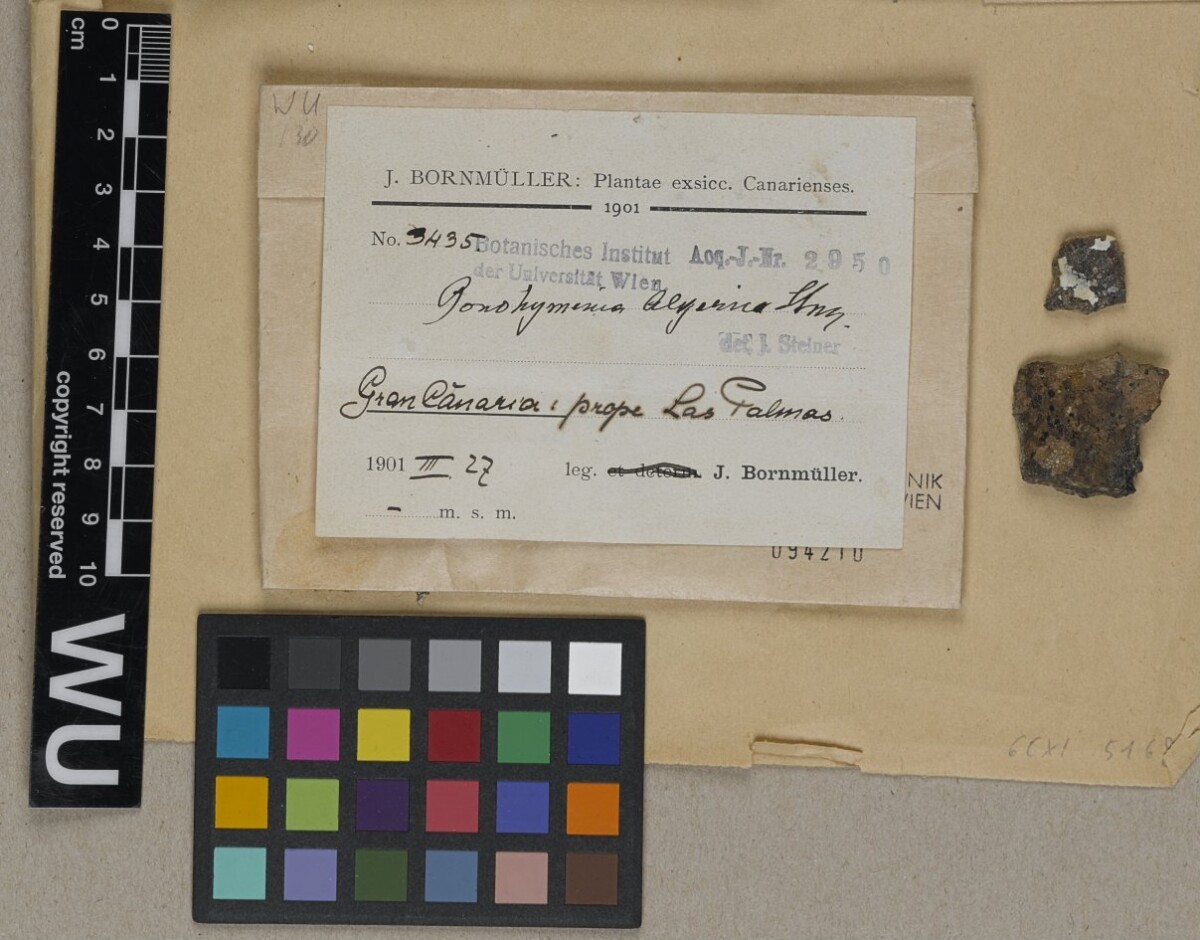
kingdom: Fungi
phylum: Ascomycota
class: Lichinomycetes
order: Lichinales
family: Lichinaceae
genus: Lichinella
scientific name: Lichinella algerica
